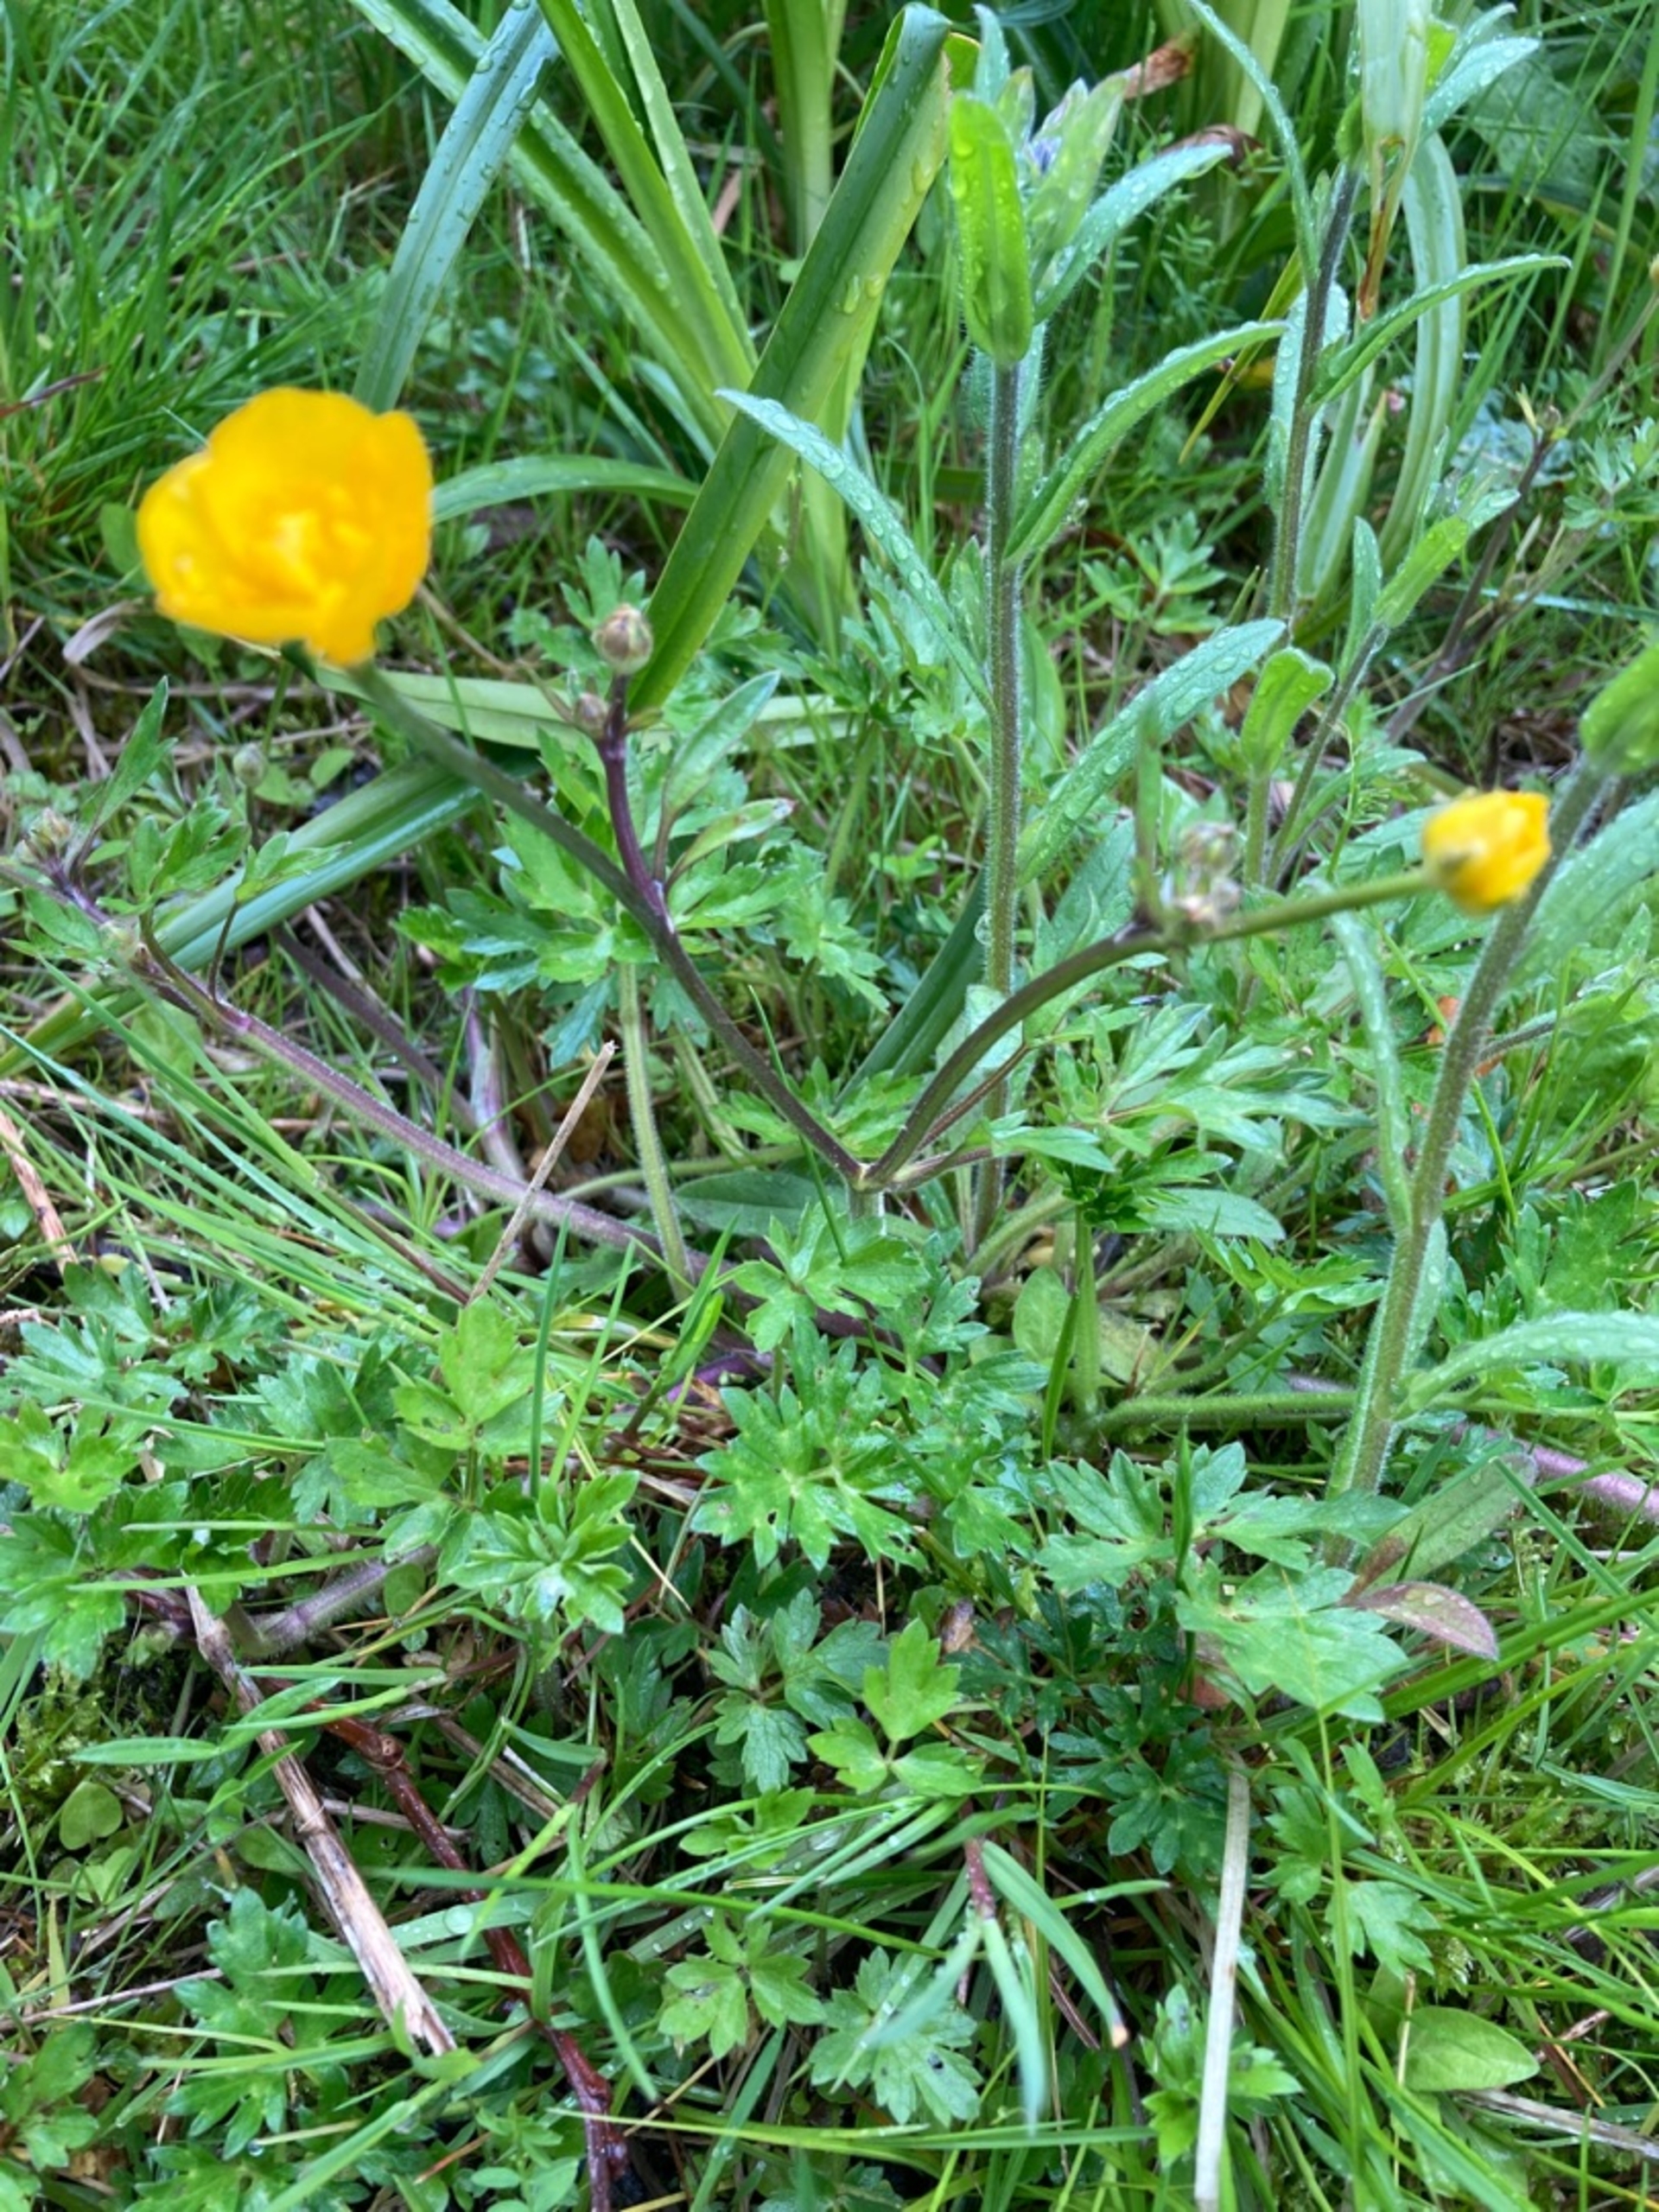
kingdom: Plantae
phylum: Tracheophyta
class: Magnoliopsida
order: Ranunculales
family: Ranunculaceae
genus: Ranunculus
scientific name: Ranunculus repens
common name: Lav ranunkel
